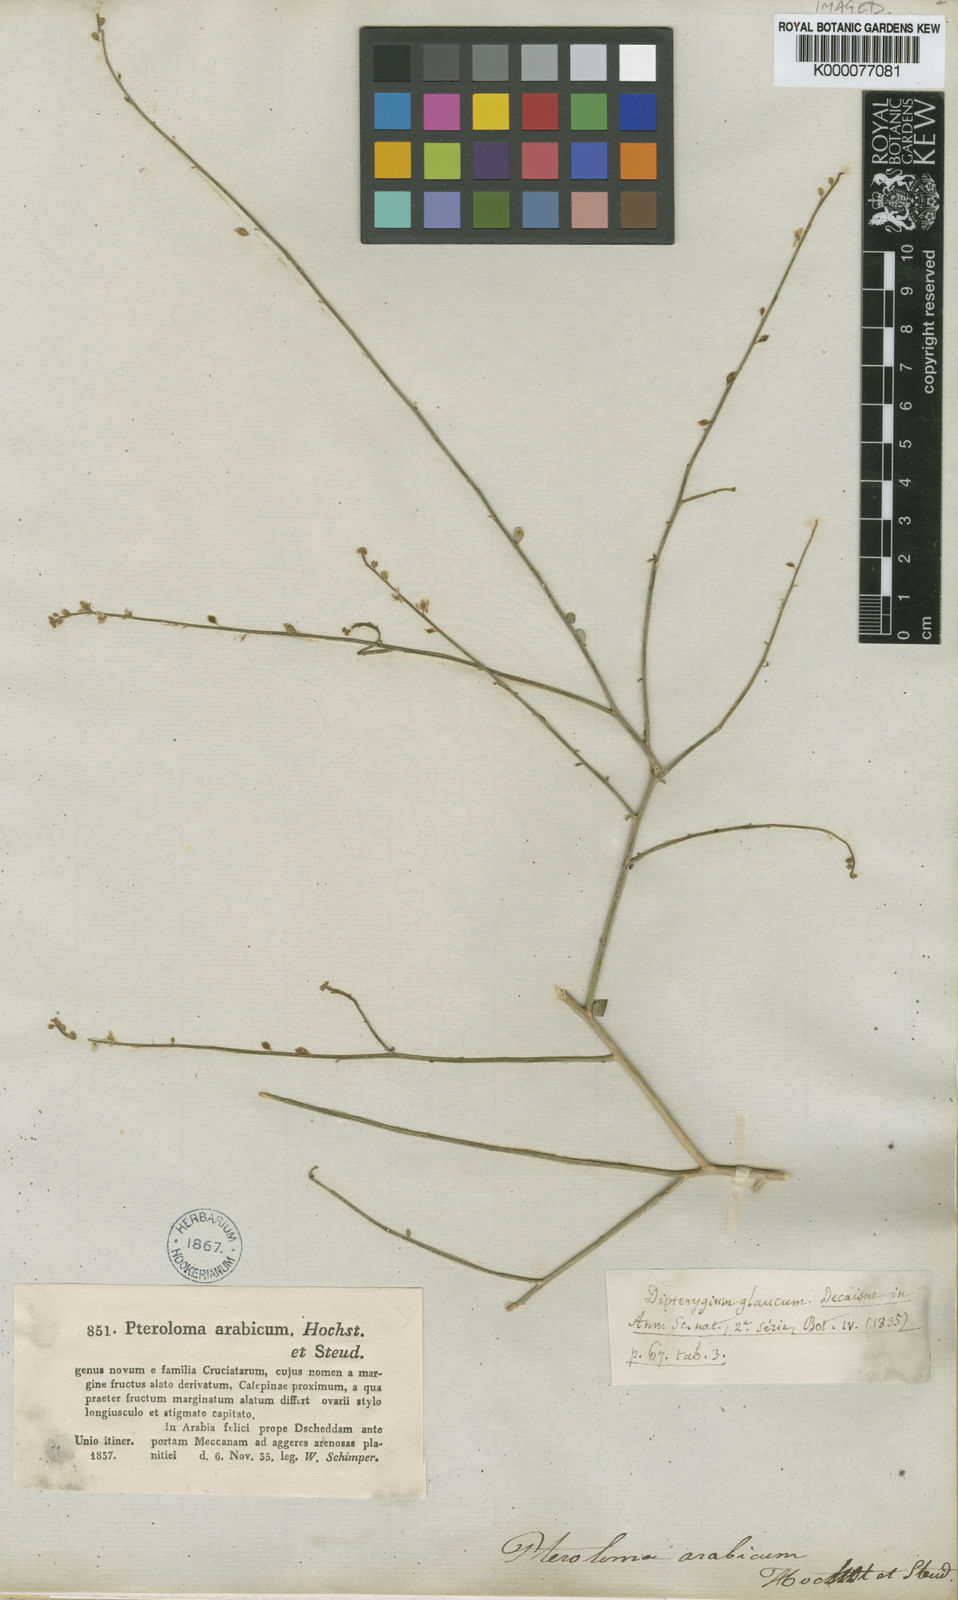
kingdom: Plantae
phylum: Tracheophyta
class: Magnoliopsida
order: Brassicales
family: Cleomaceae
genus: Dipterygium
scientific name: Dipterygium glaucum
